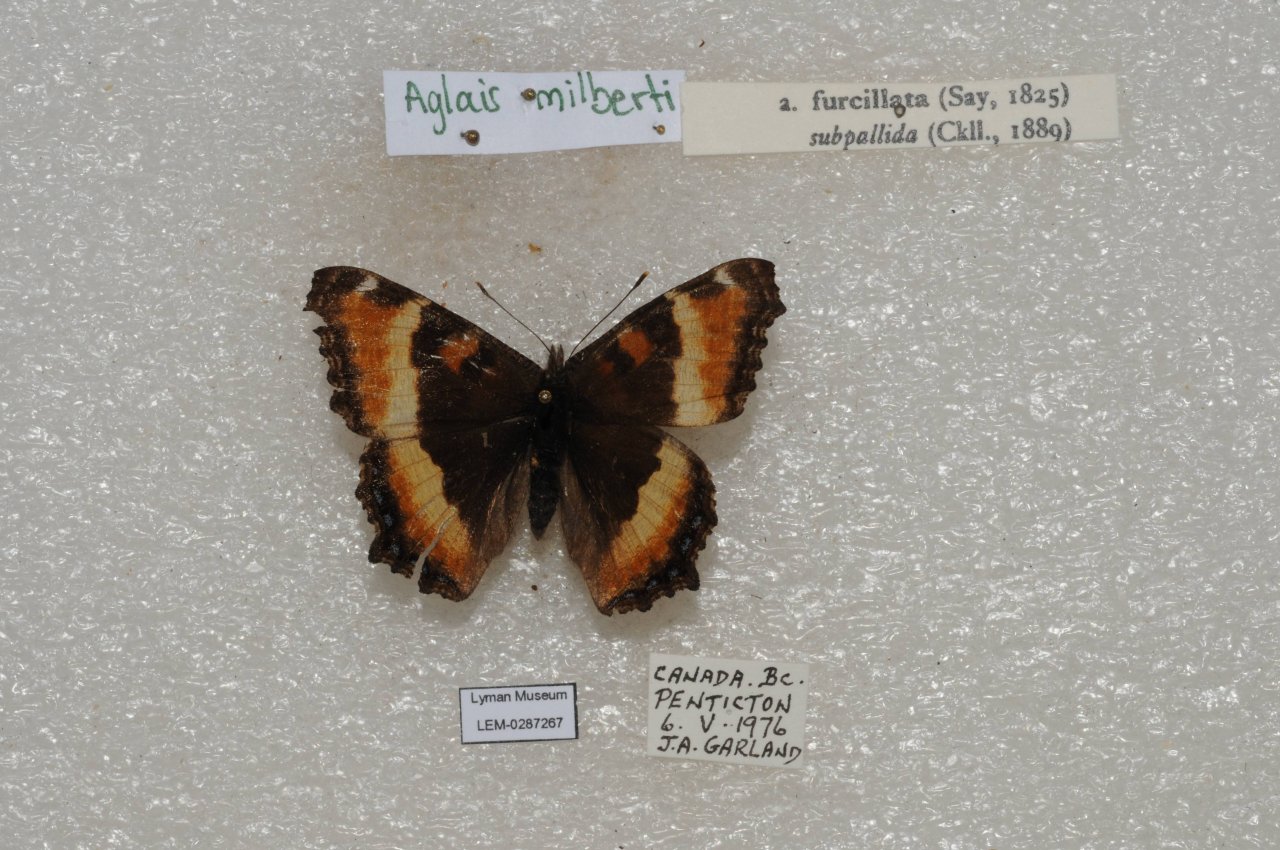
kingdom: Animalia
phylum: Arthropoda
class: Insecta
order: Lepidoptera
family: Nymphalidae
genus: Aglais
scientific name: Aglais milberti
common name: Milbert's Tortoiseshell
